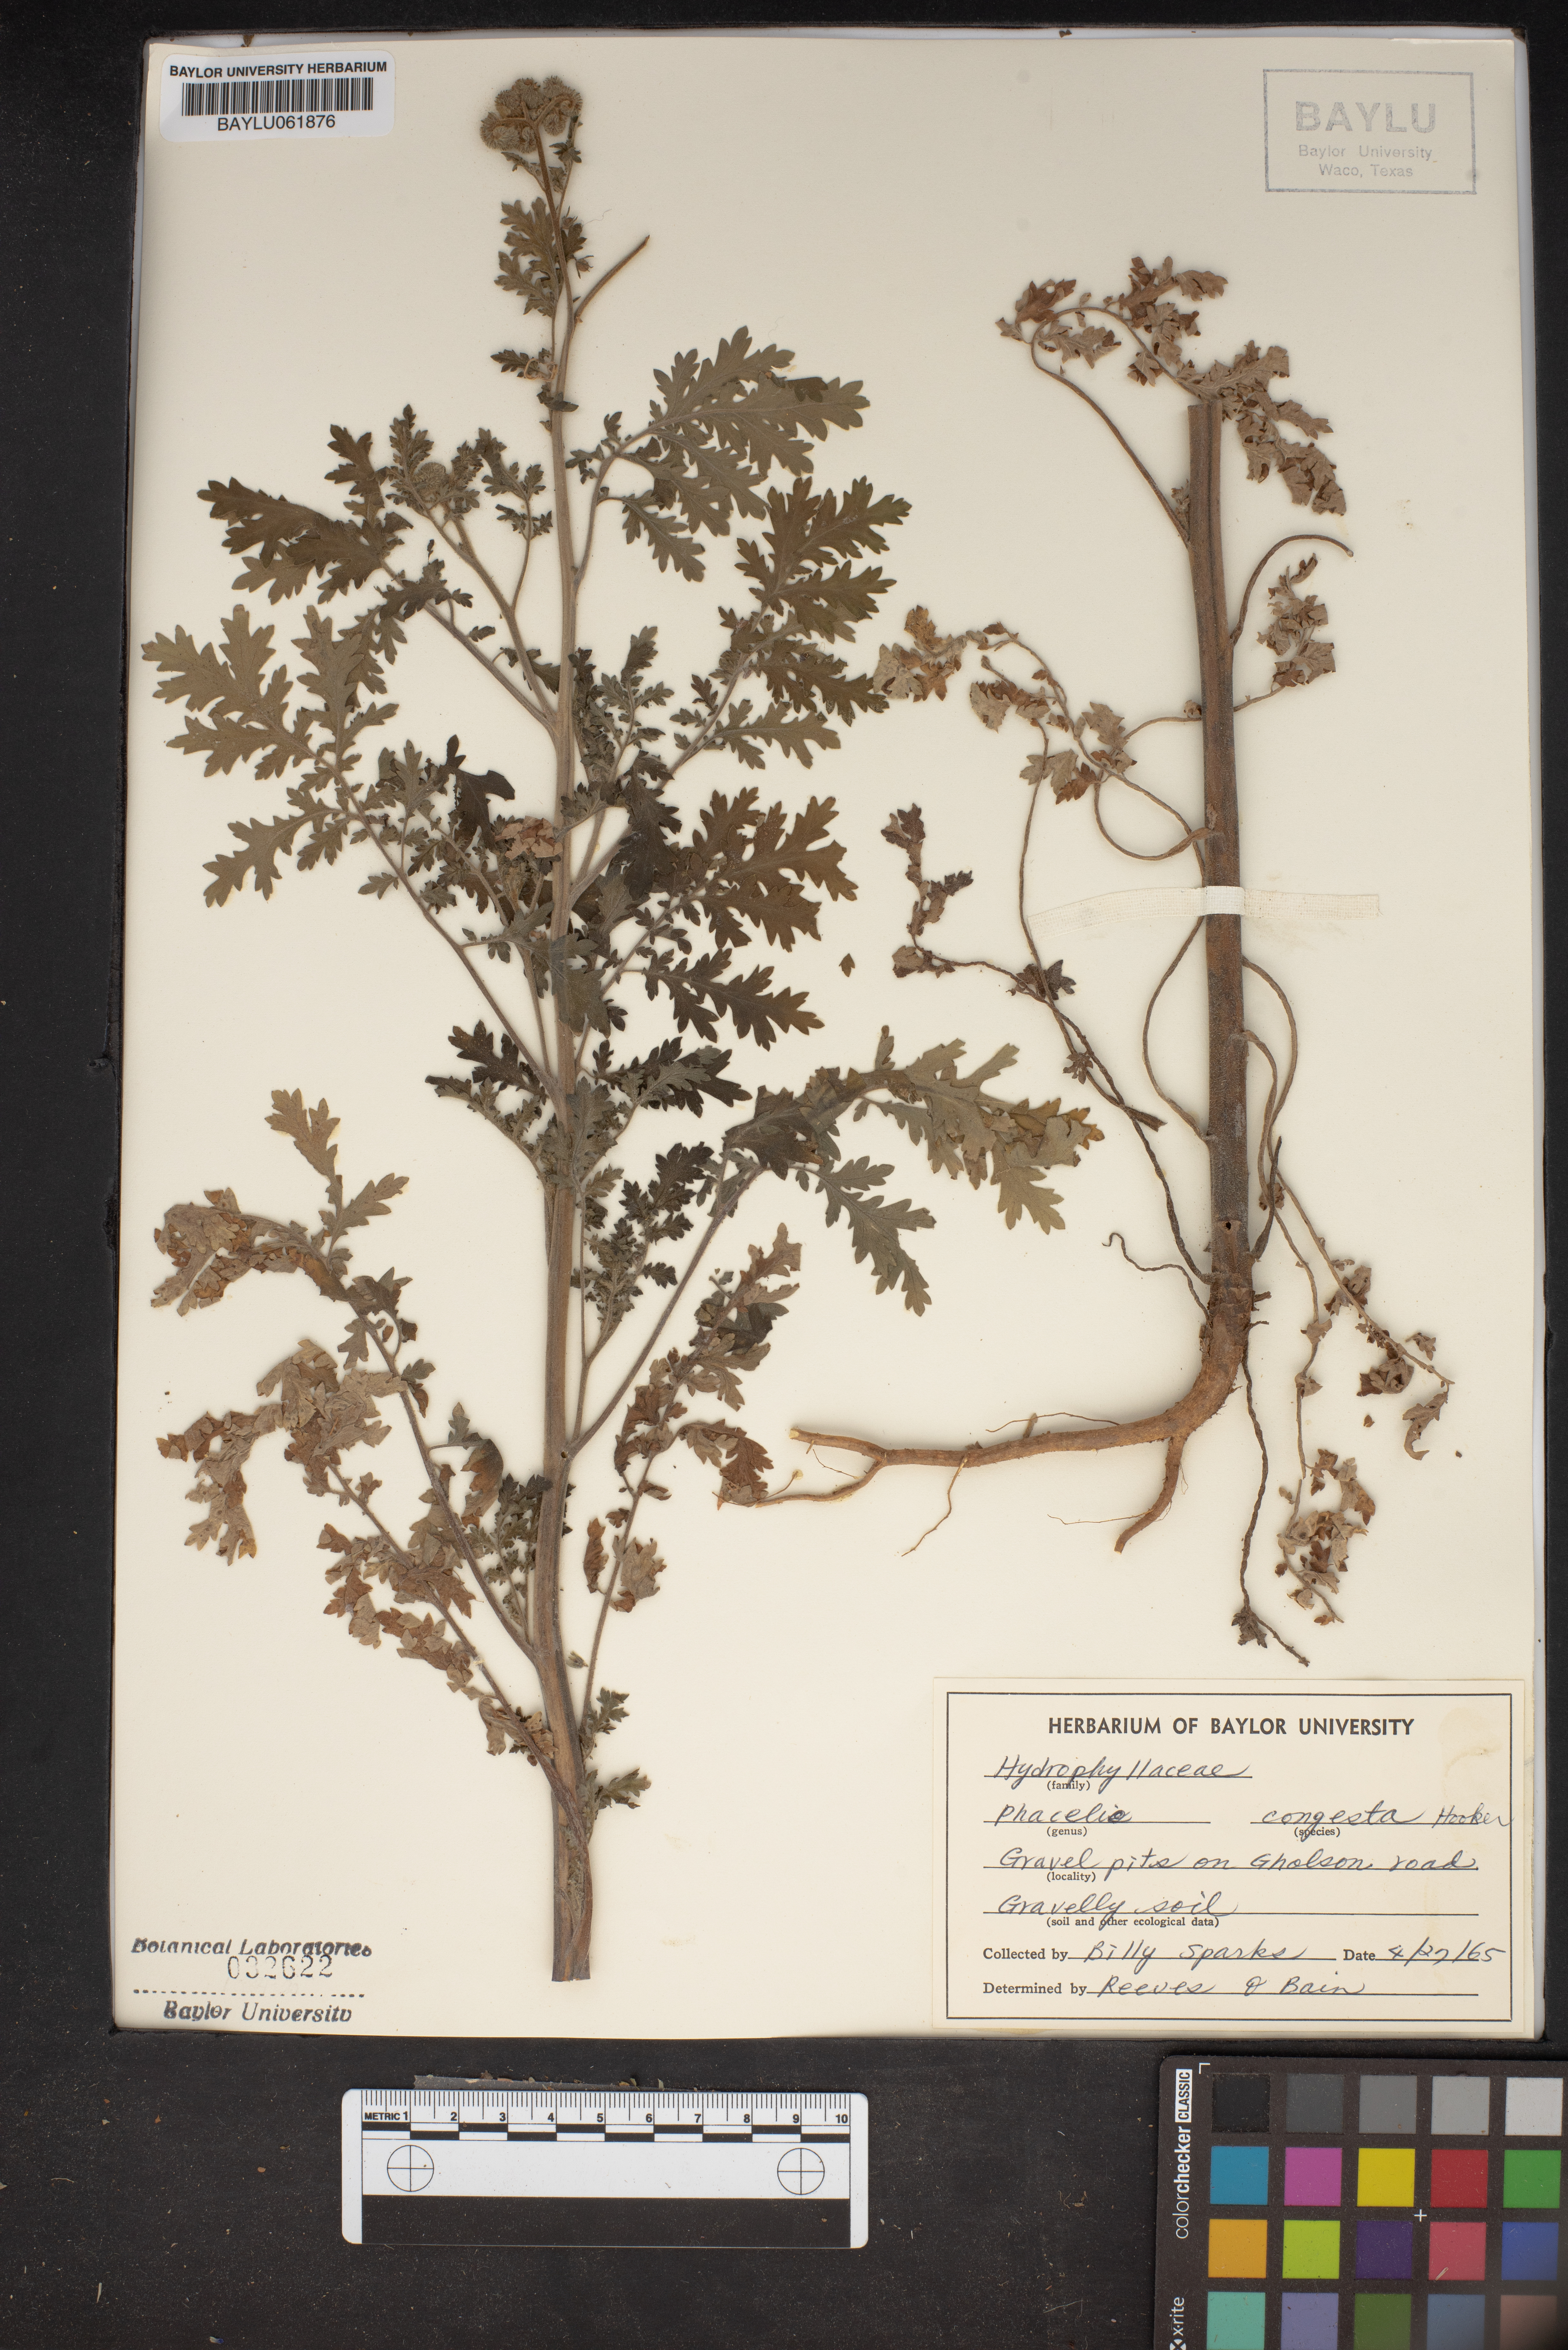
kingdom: Plantae
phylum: Tracheophyta
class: Magnoliopsida
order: Boraginales
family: Hydrophyllaceae
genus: Phacelia
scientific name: Phacelia congesta
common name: Blue curls
